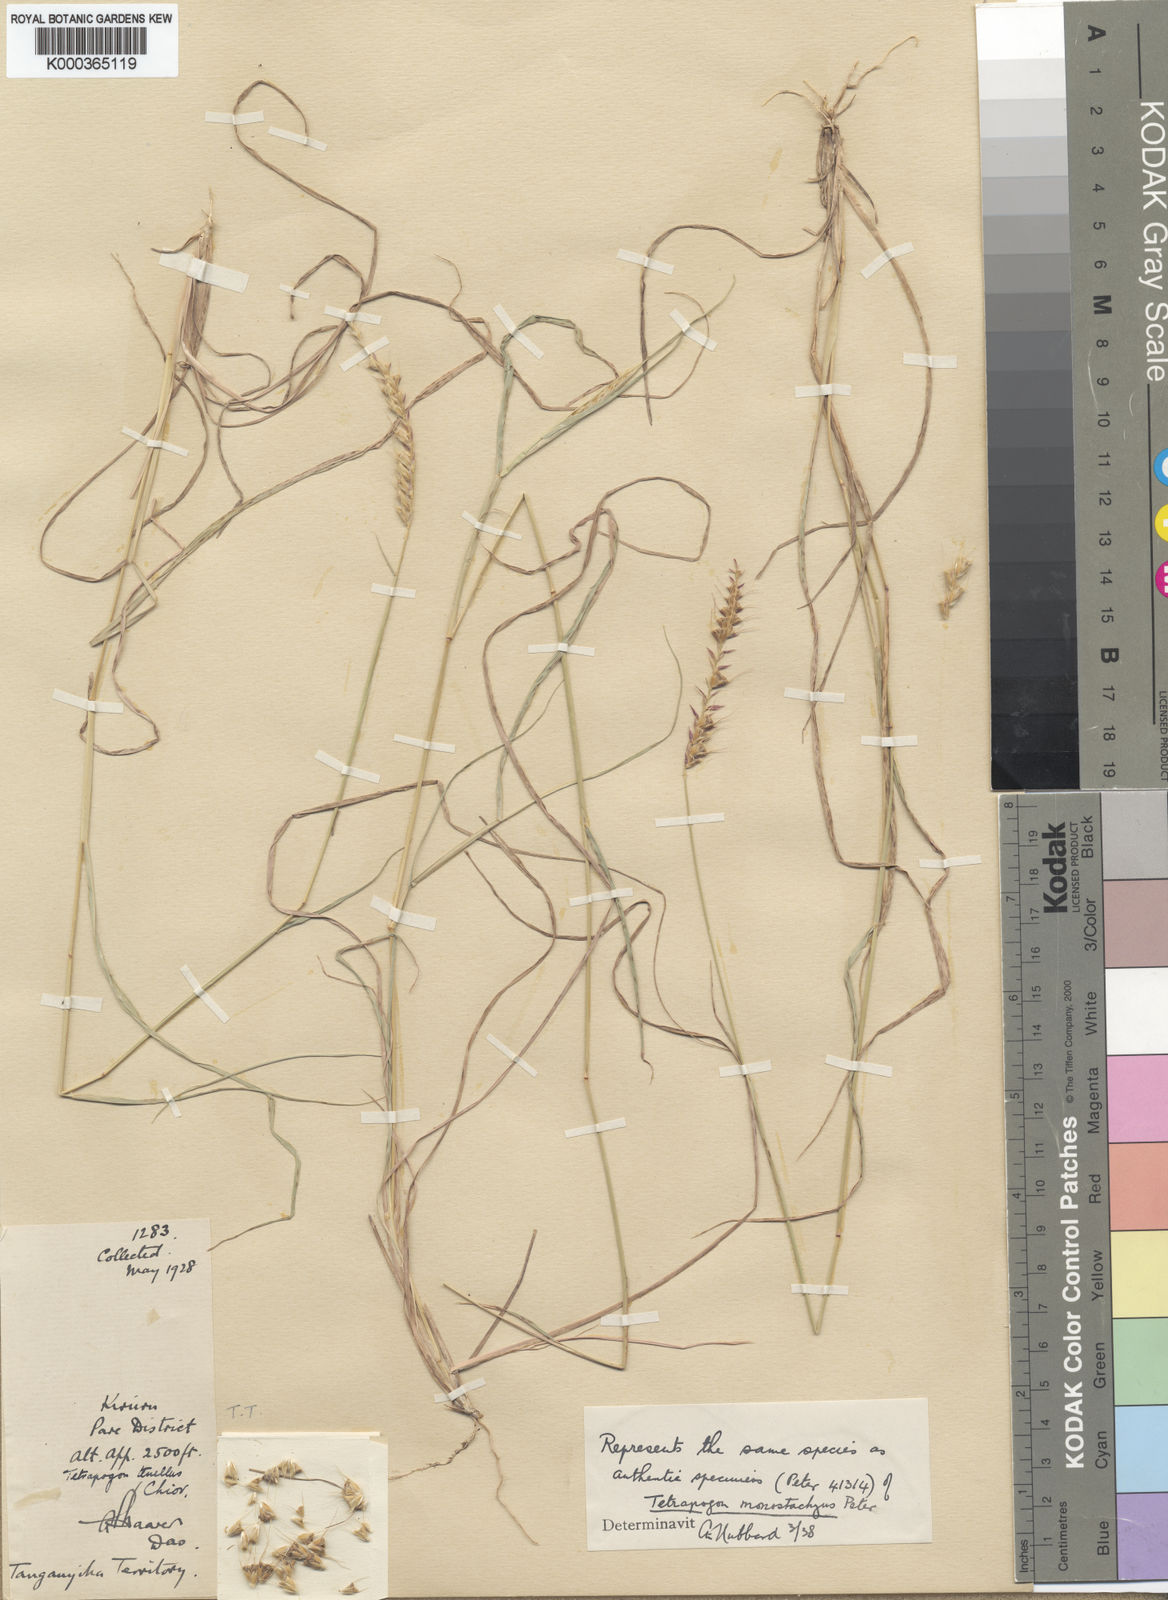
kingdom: Plantae
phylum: Tracheophyta
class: Liliopsida
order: Poales
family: Poaceae
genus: Tetrapogon
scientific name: Tetrapogon
